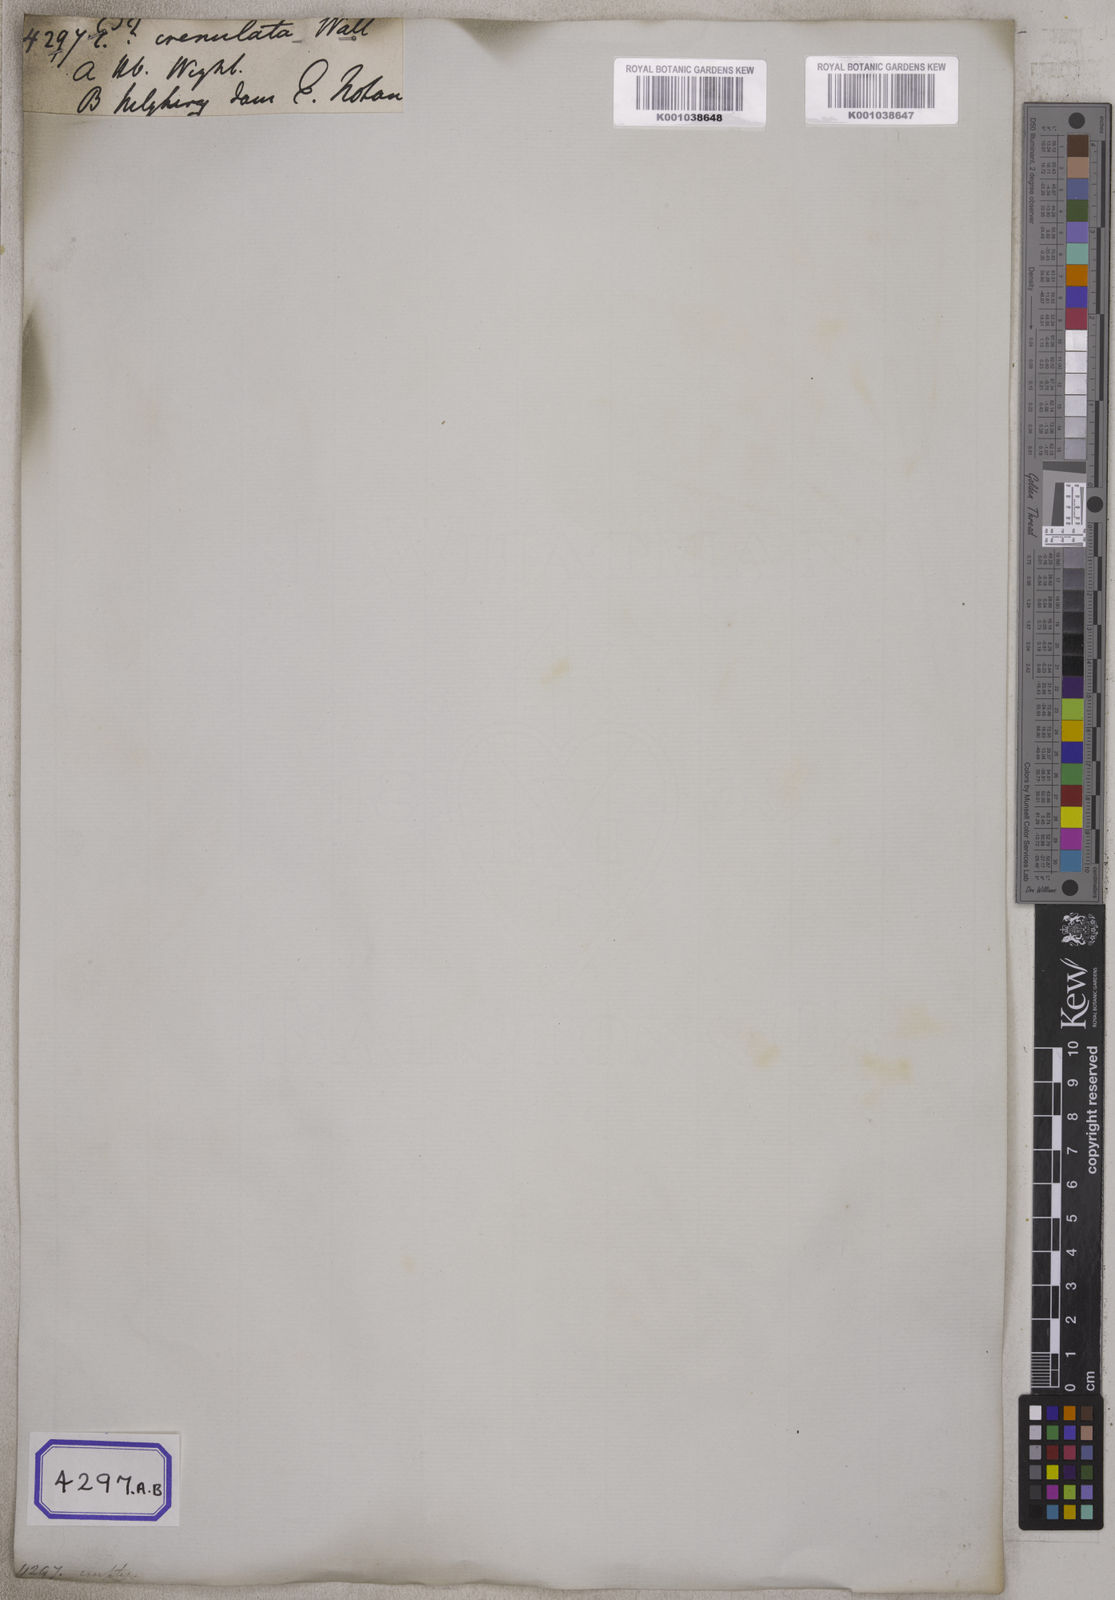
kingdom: Plantae
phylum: Tracheophyta
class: Magnoliopsida
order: Celastrales
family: Celastraceae
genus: Euonymus
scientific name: Euonymus
